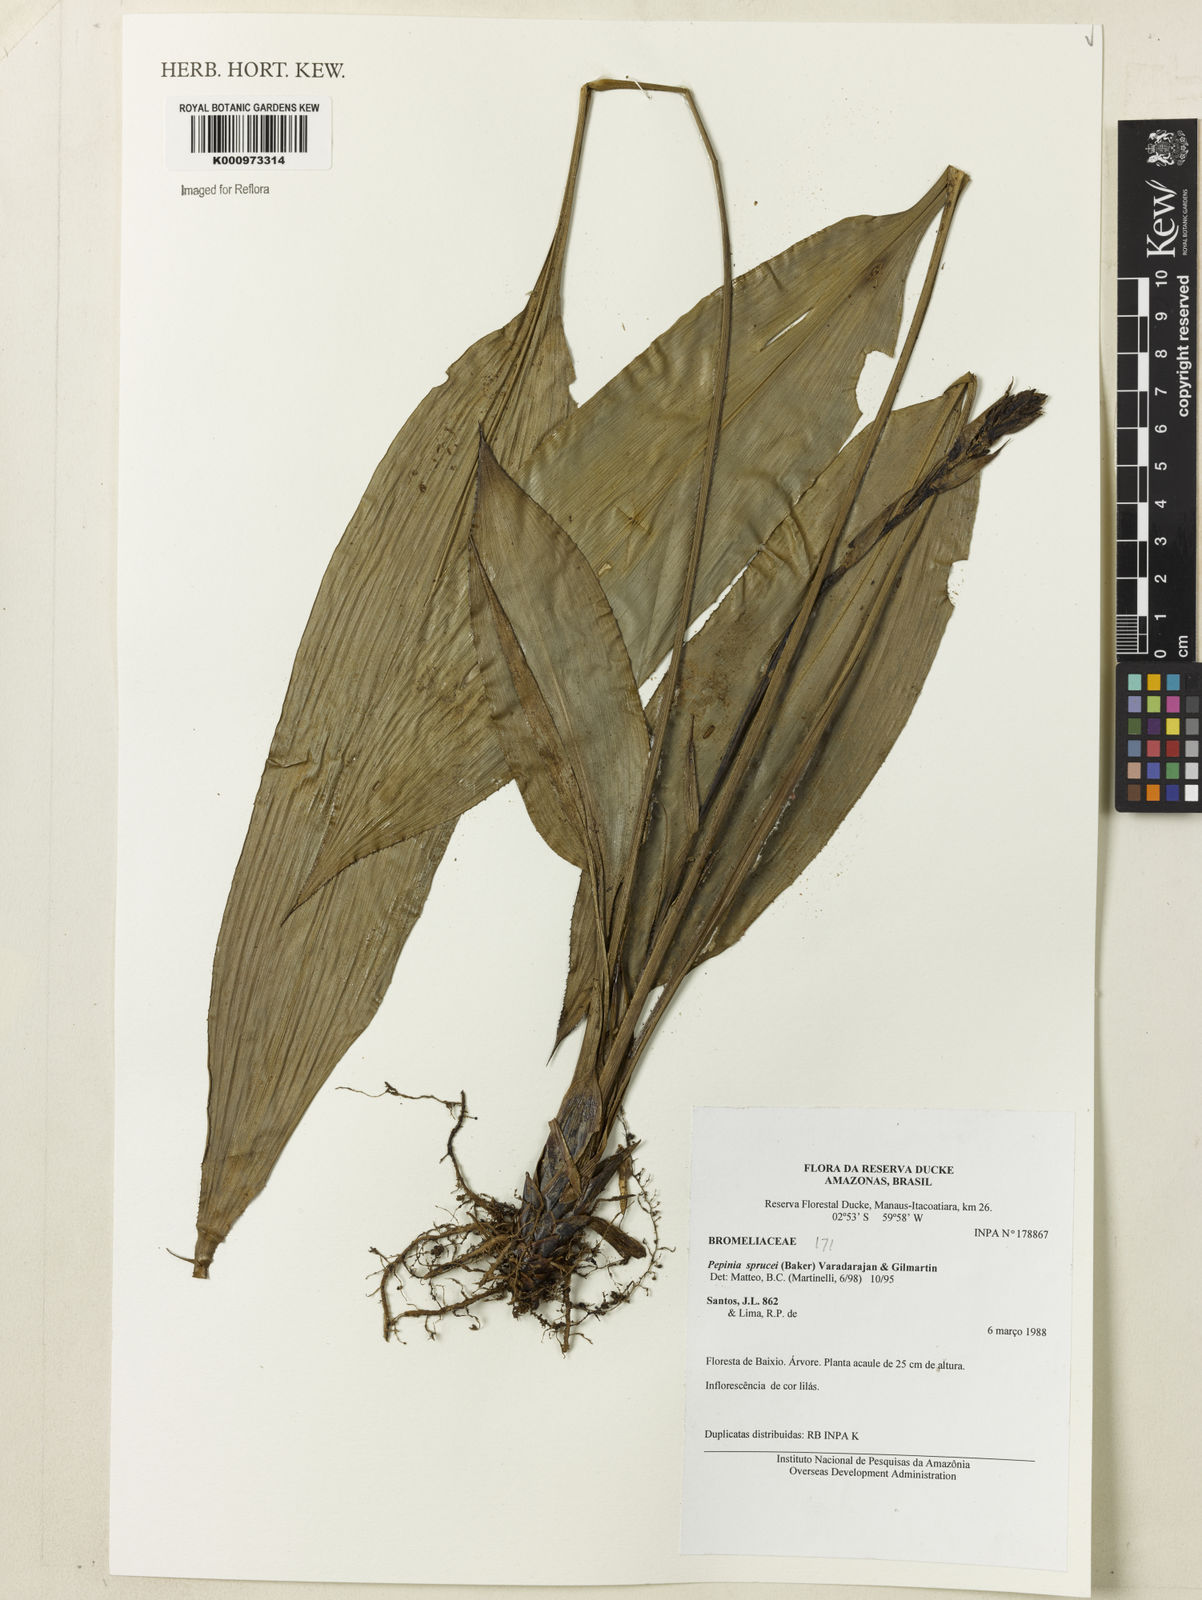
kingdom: Plantae
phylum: Tracheophyta
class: Liliopsida
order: Poales
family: Bromeliaceae
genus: Pitcairnia
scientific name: Pitcairnia sprucei
